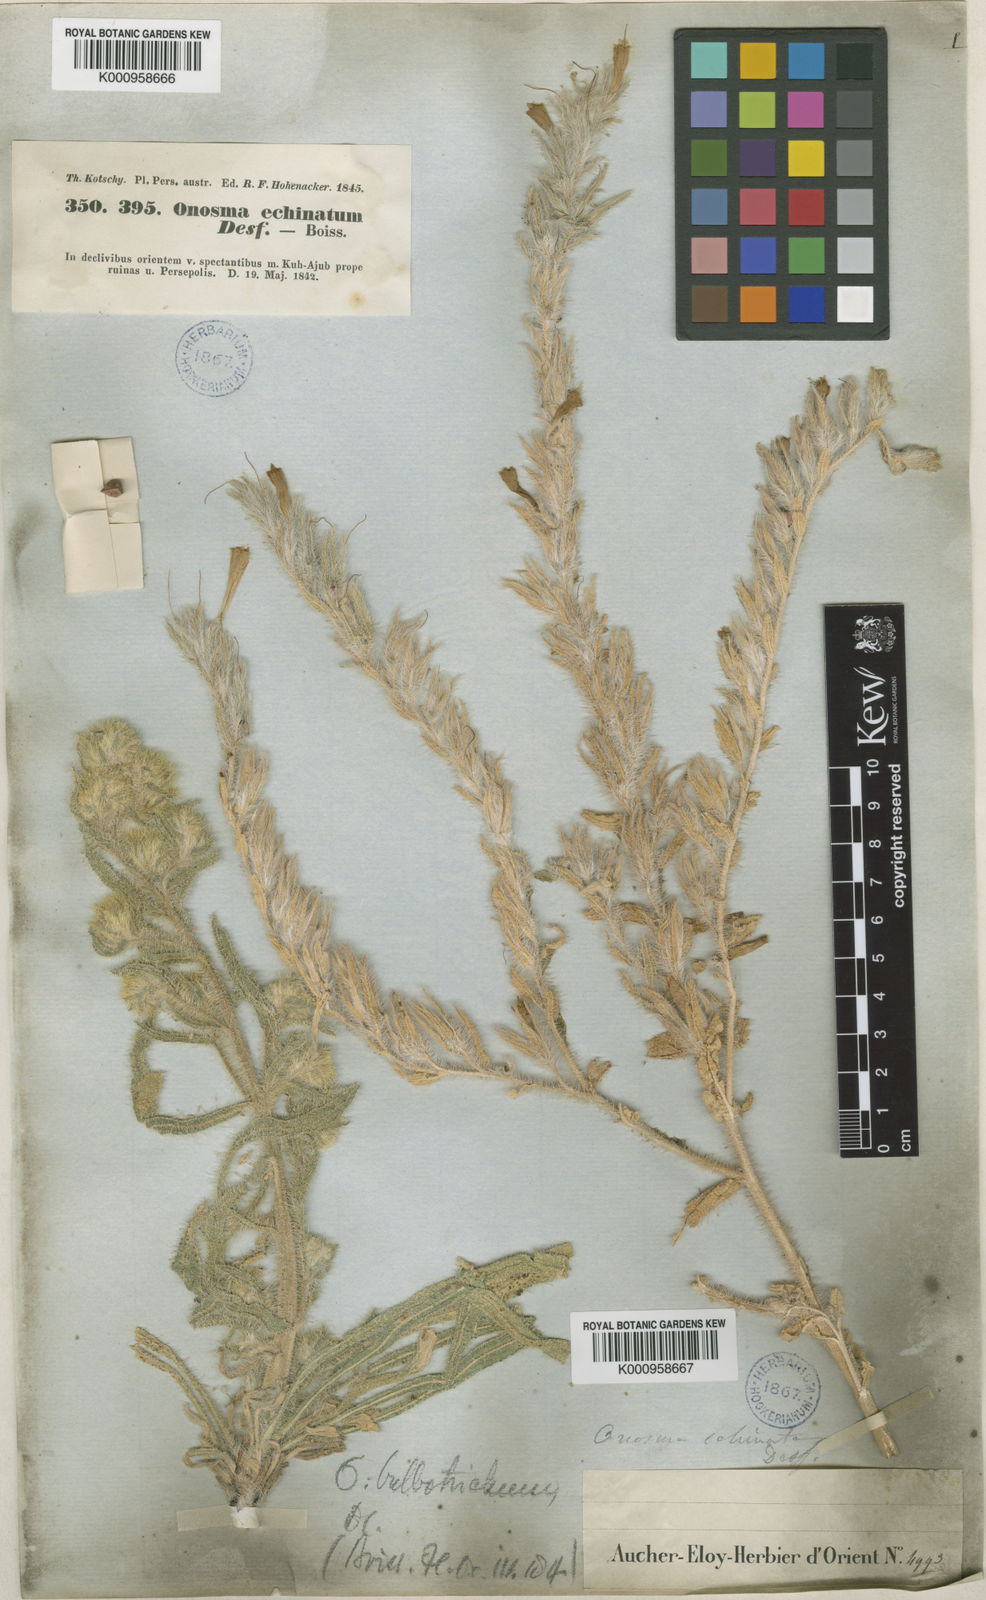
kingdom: Plantae
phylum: Tracheophyta
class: Magnoliopsida
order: Boraginales
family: Boraginaceae
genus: Onosma
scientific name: Onosma bulbotricha
